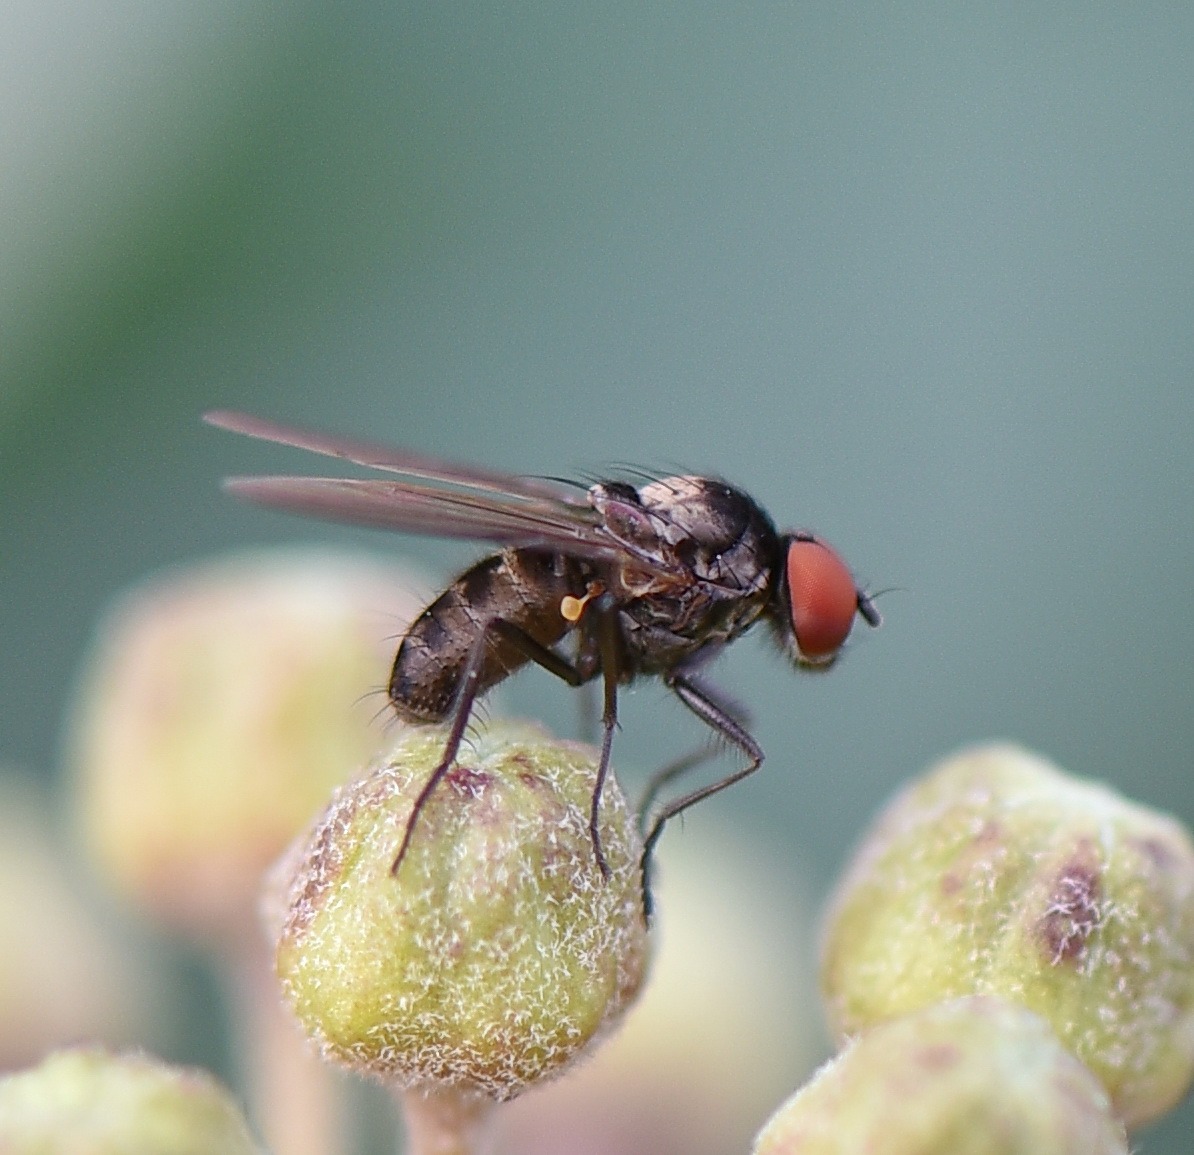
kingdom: Animalia
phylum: Arthropoda
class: Insecta
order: Diptera
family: Muscidae
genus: Azelia
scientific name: Azelia
